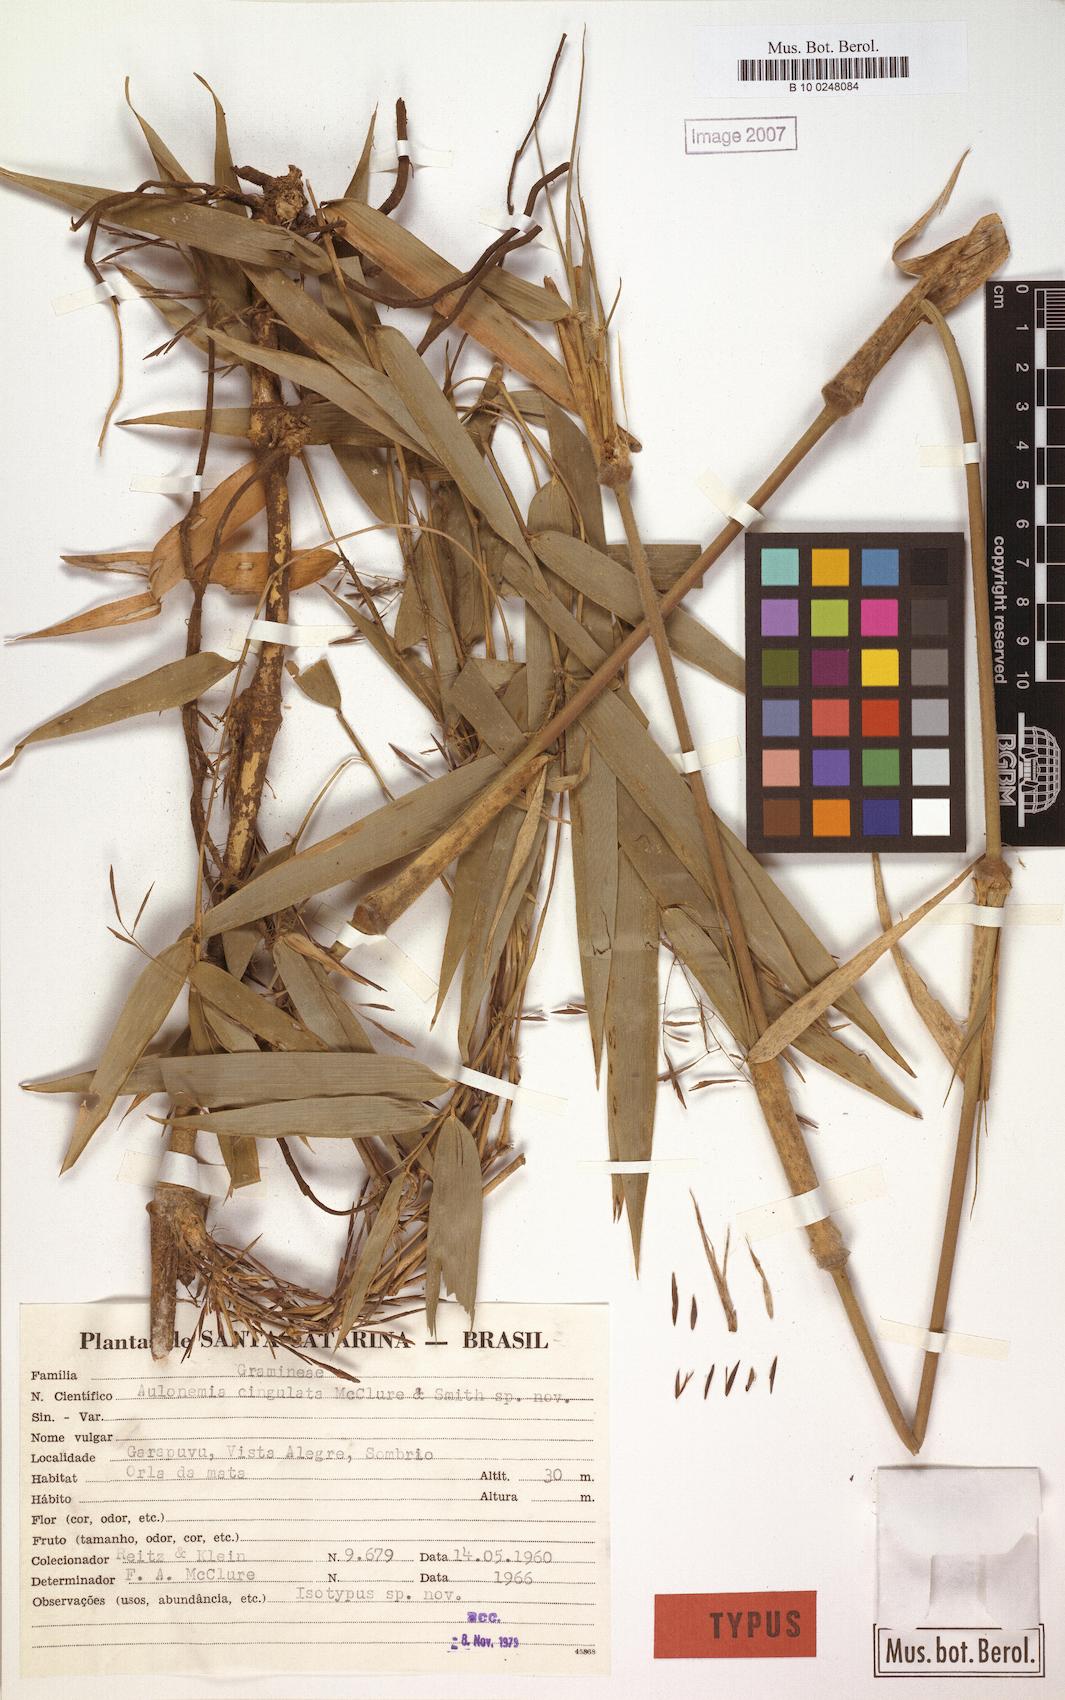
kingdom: Plantae
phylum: Tracheophyta
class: Liliopsida
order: Poales
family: Poaceae
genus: Colanthelia
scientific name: Colanthelia cingulata
